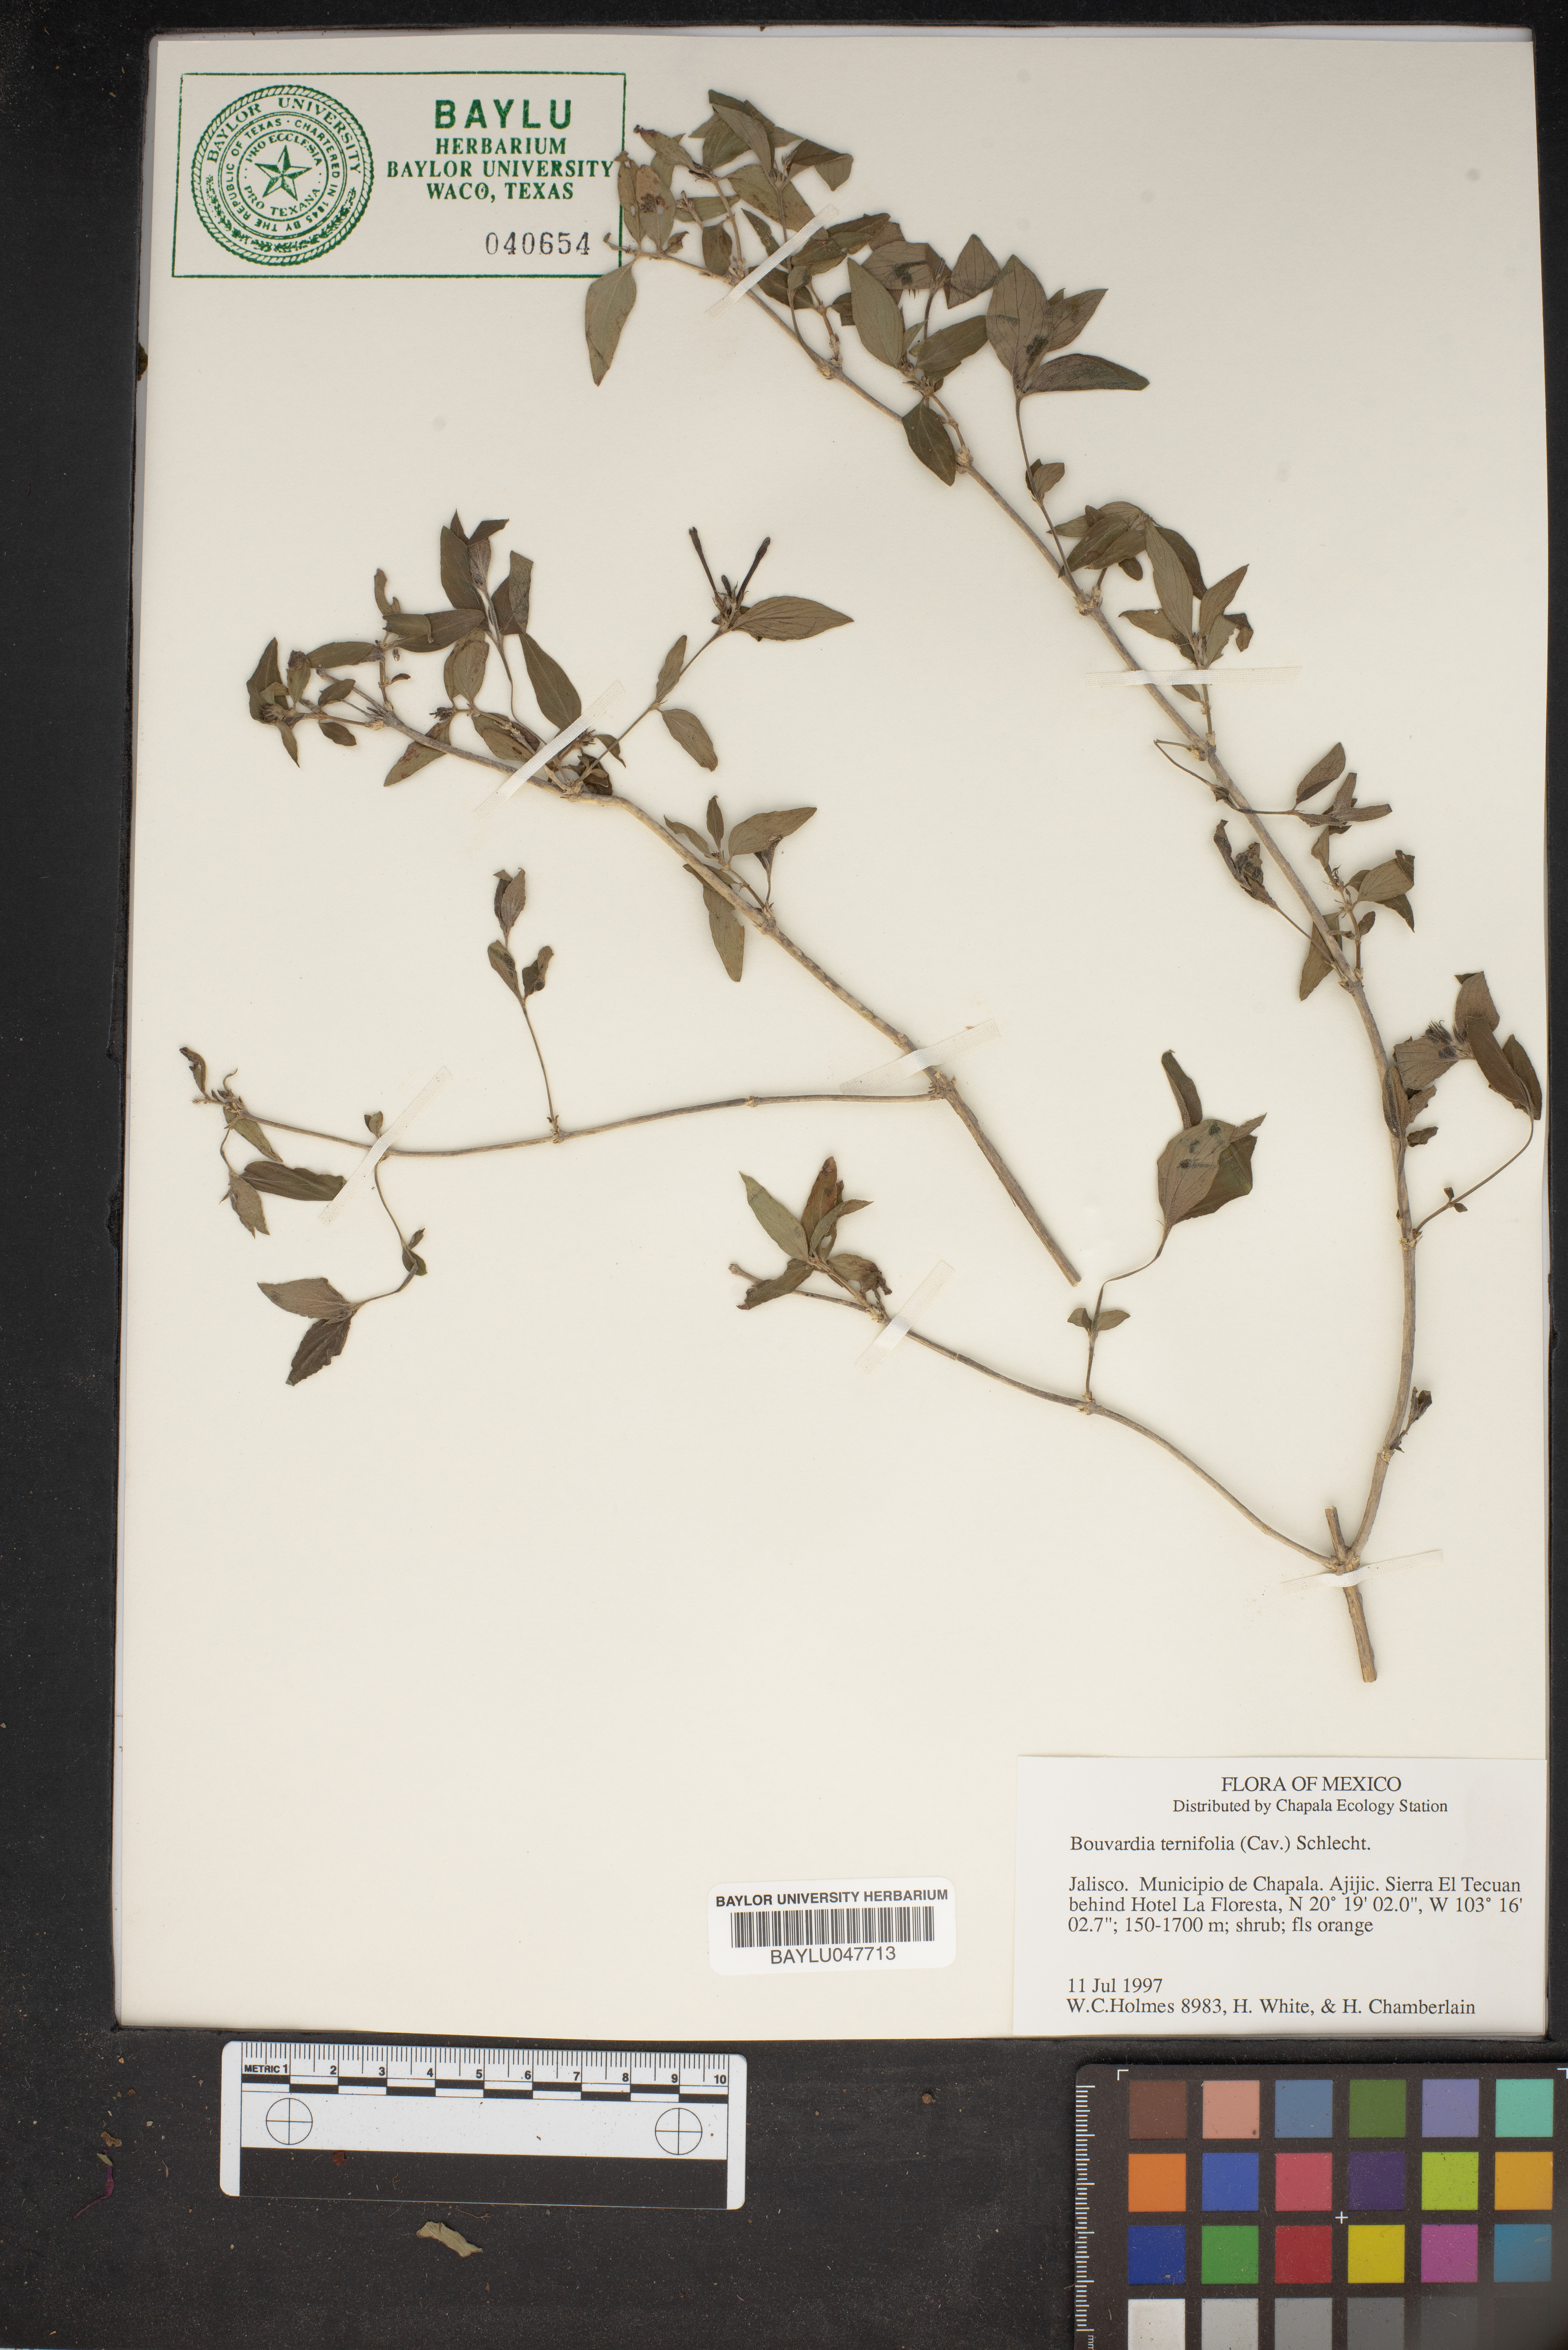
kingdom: Plantae
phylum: Tracheophyta
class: Magnoliopsida
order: Gentianales
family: Rubiaceae
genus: Bouvardia
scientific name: Bouvardia ternifolia
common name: Scarlet bouvardia
